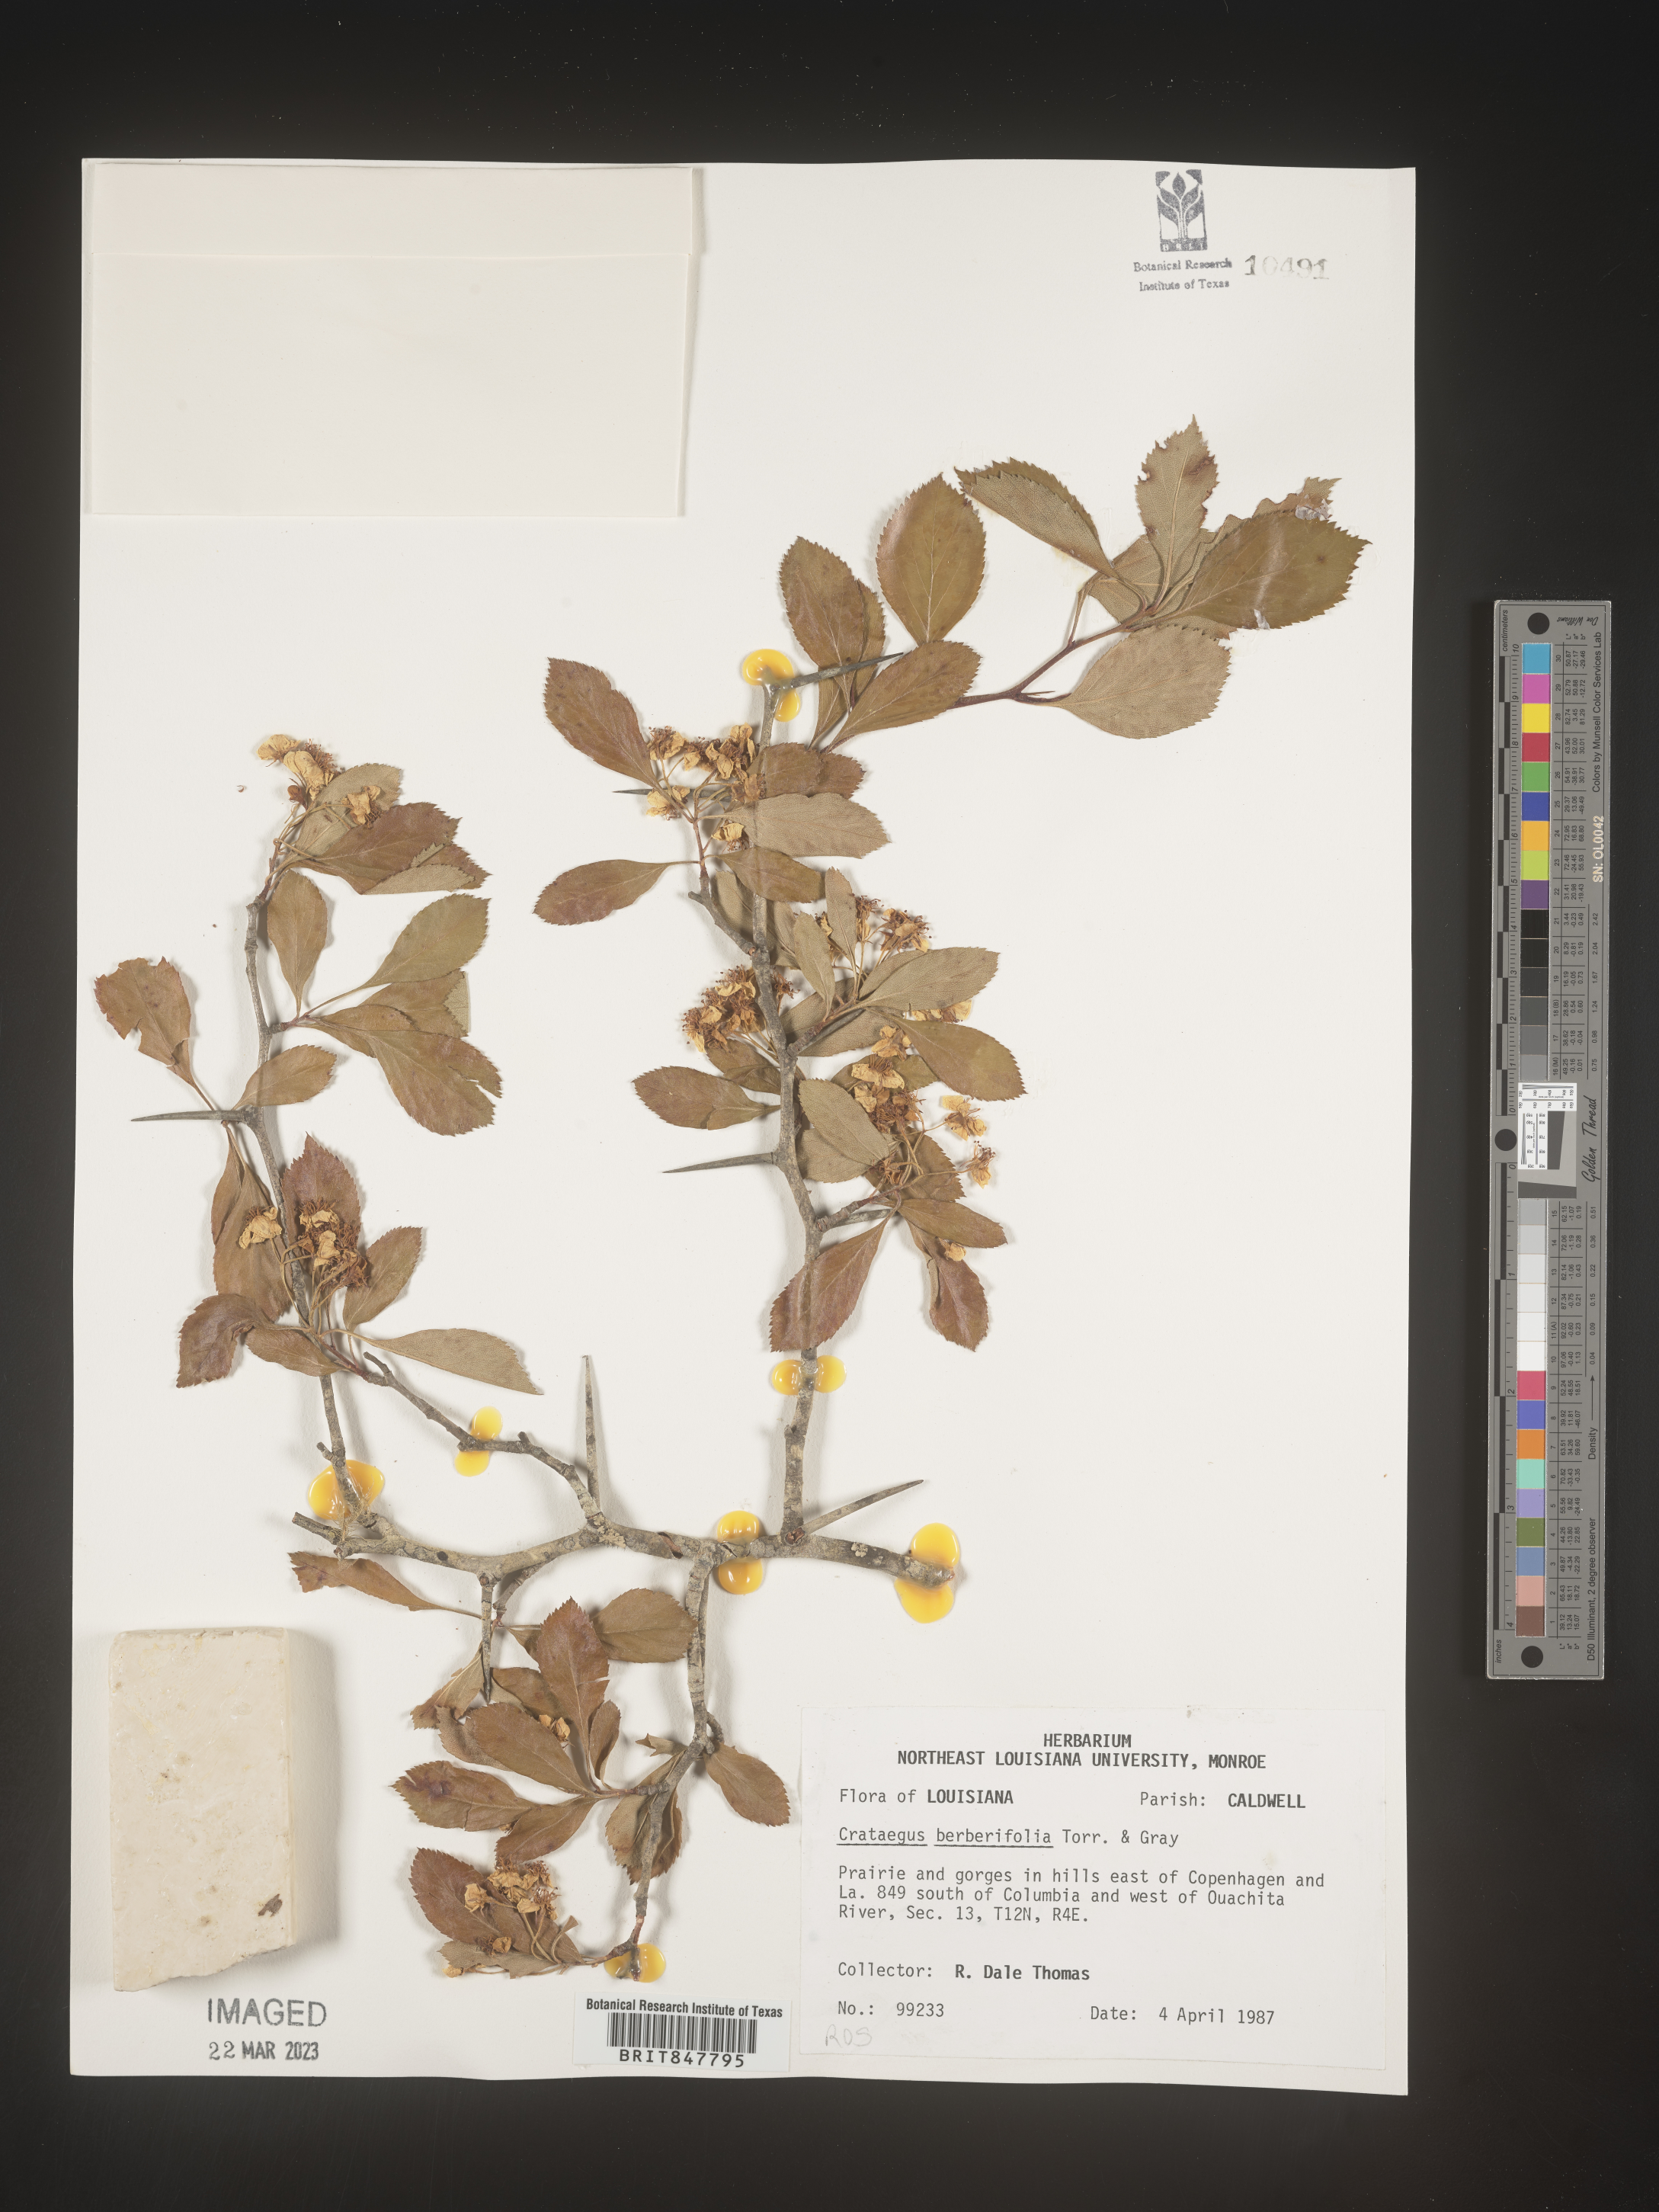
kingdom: Plantae
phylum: Tracheophyta
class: Magnoliopsida
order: Rosales
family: Rosaceae
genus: Crataegus
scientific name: Crataegus berberifolia
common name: Barberry hawthorn
